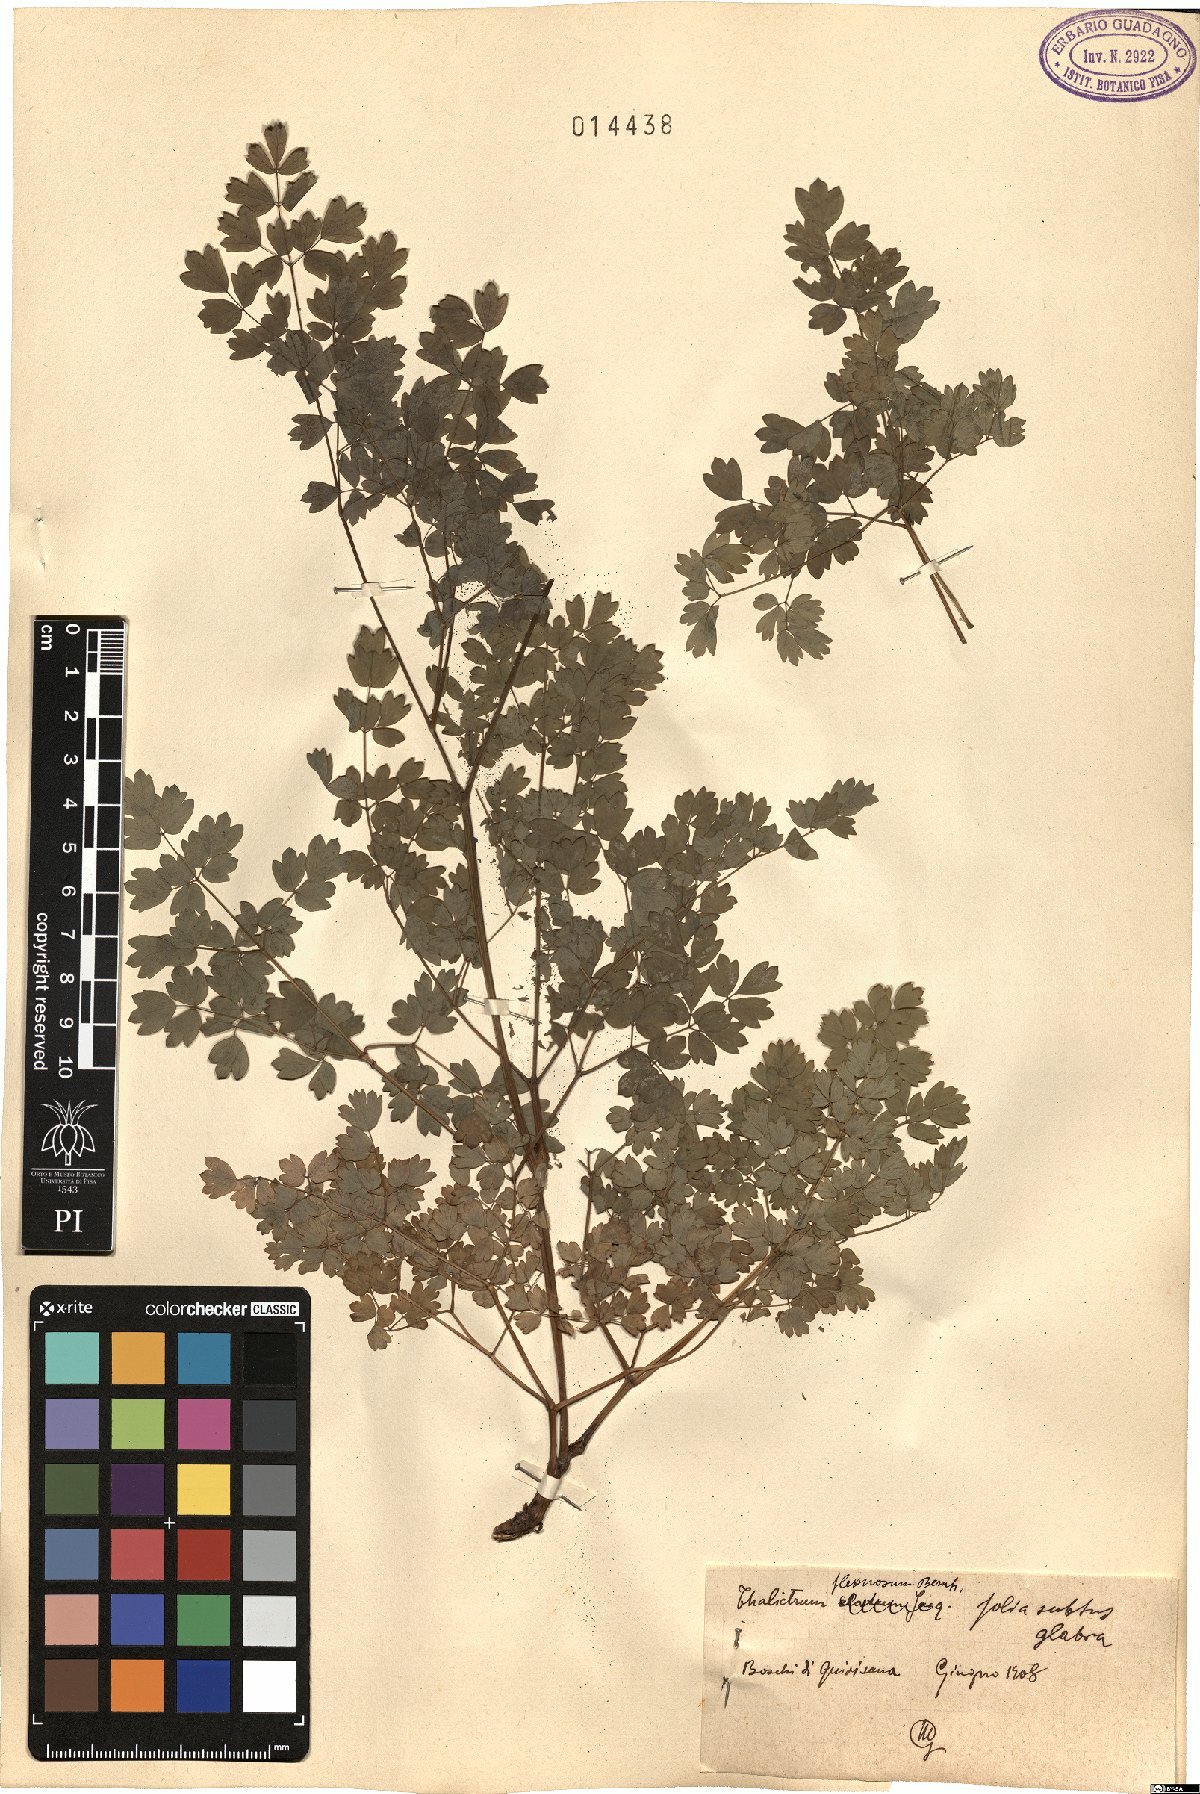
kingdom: Plantae
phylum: Tracheophyta
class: Magnoliopsida
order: Ranunculales
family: Ranunculaceae
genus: Thalictrum
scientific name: Thalictrum minus
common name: Lesser meadow-rue
